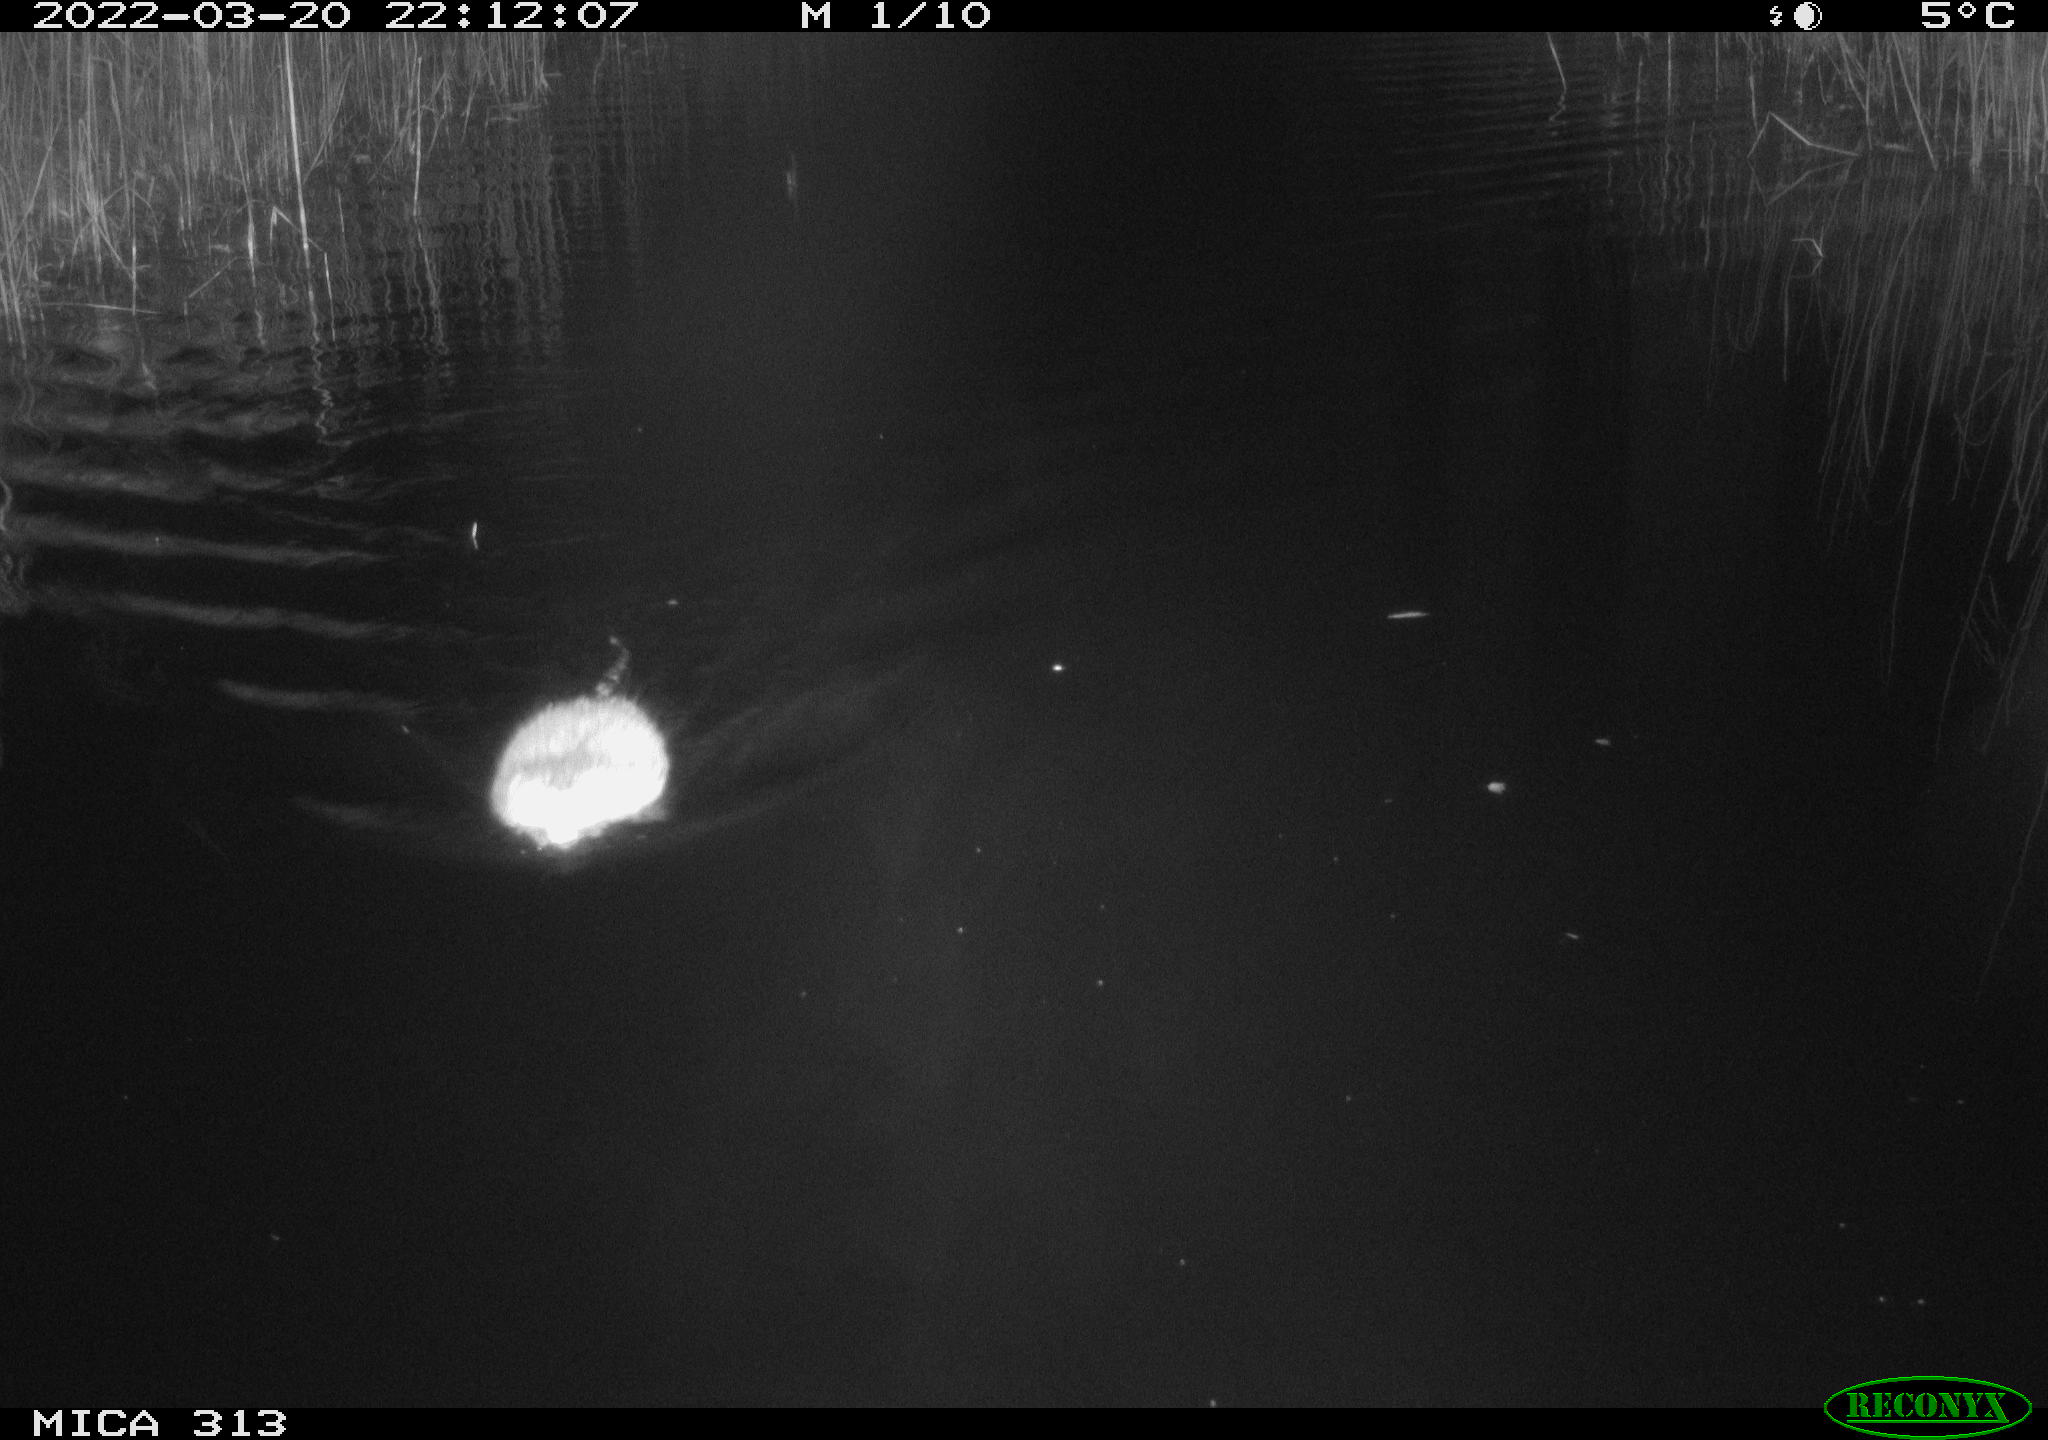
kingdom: Animalia
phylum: Chordata
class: Mammalia
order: Rodentia
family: Cricetidae
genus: Ondatra
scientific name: Ondatra zibethicus
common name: Muskrat
